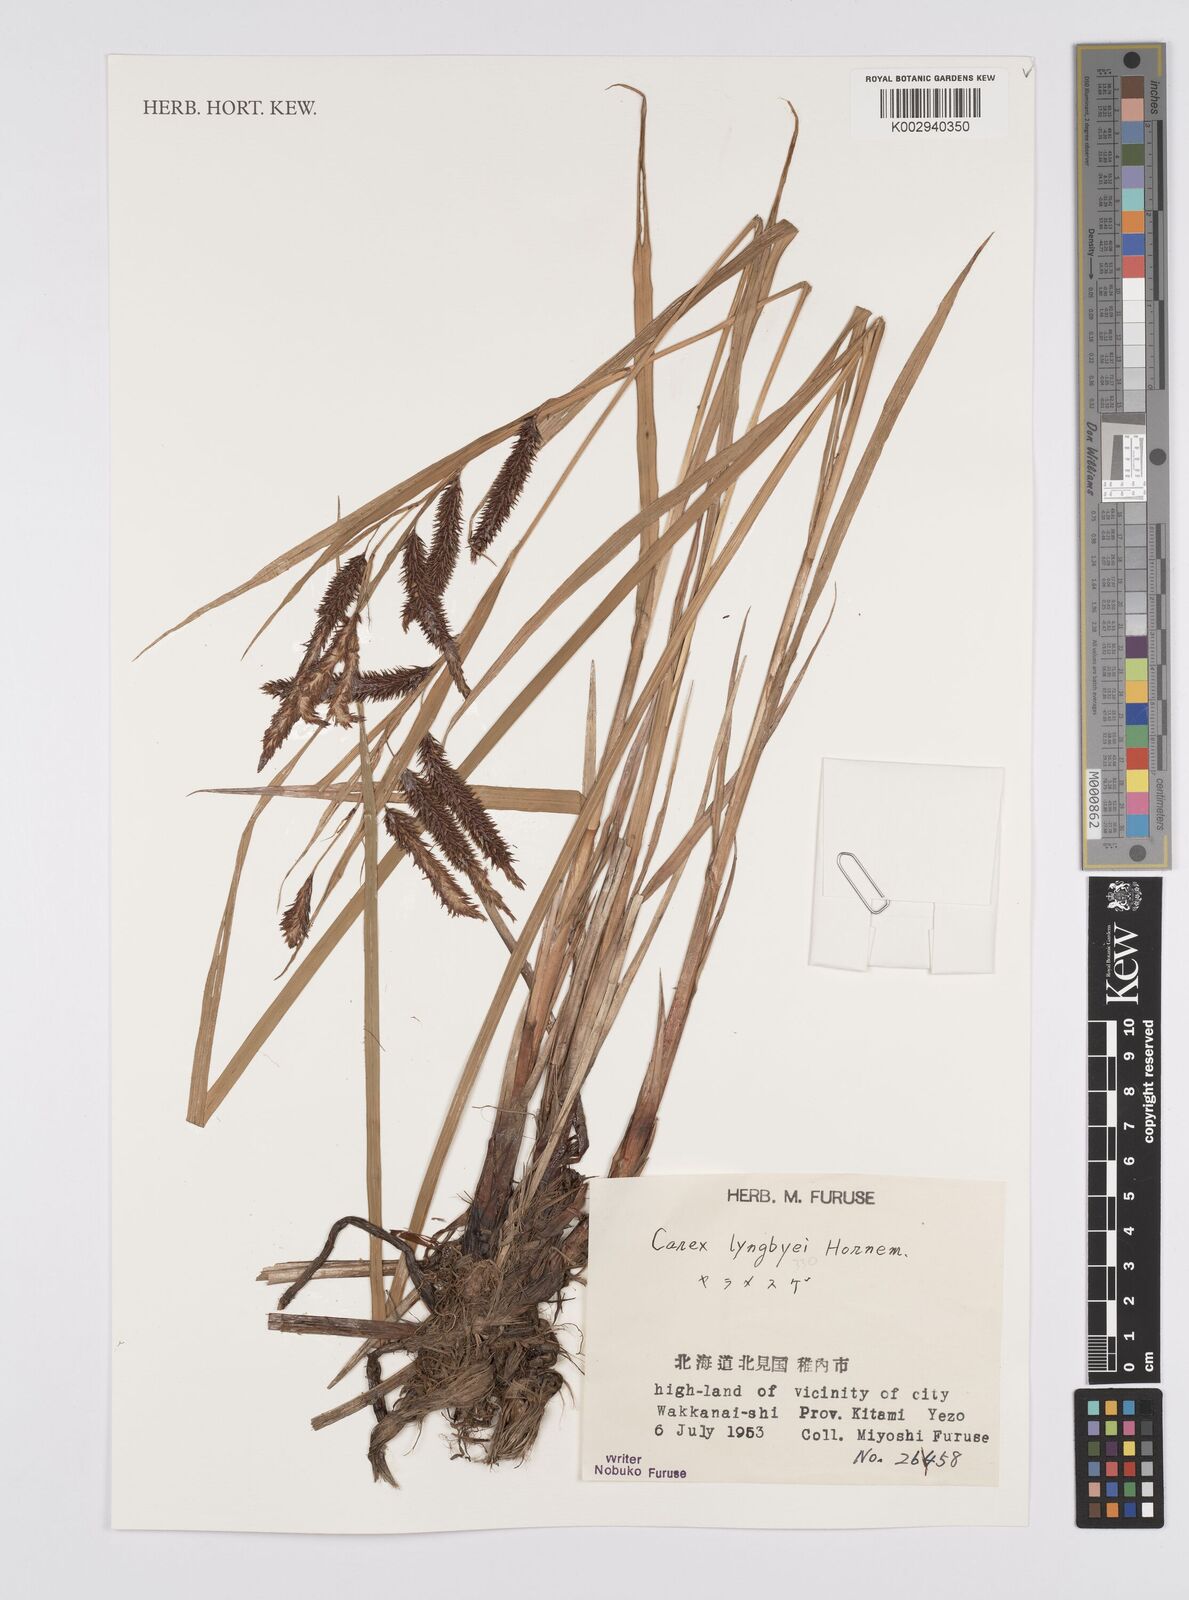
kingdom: Plantae
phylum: Tracheophyta
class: Liliopsida
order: Poales
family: Cyperaceae
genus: Carex
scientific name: Carex lyngbyei
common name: Lyngbye's sedge
